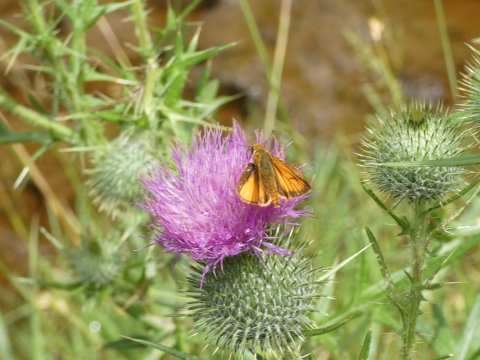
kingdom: Animalia
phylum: Arthropoda
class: Insecta
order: Lepidoptera
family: Hesperiidae
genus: Atrytone
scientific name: Atrytone delaware
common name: Delaware Skipper
